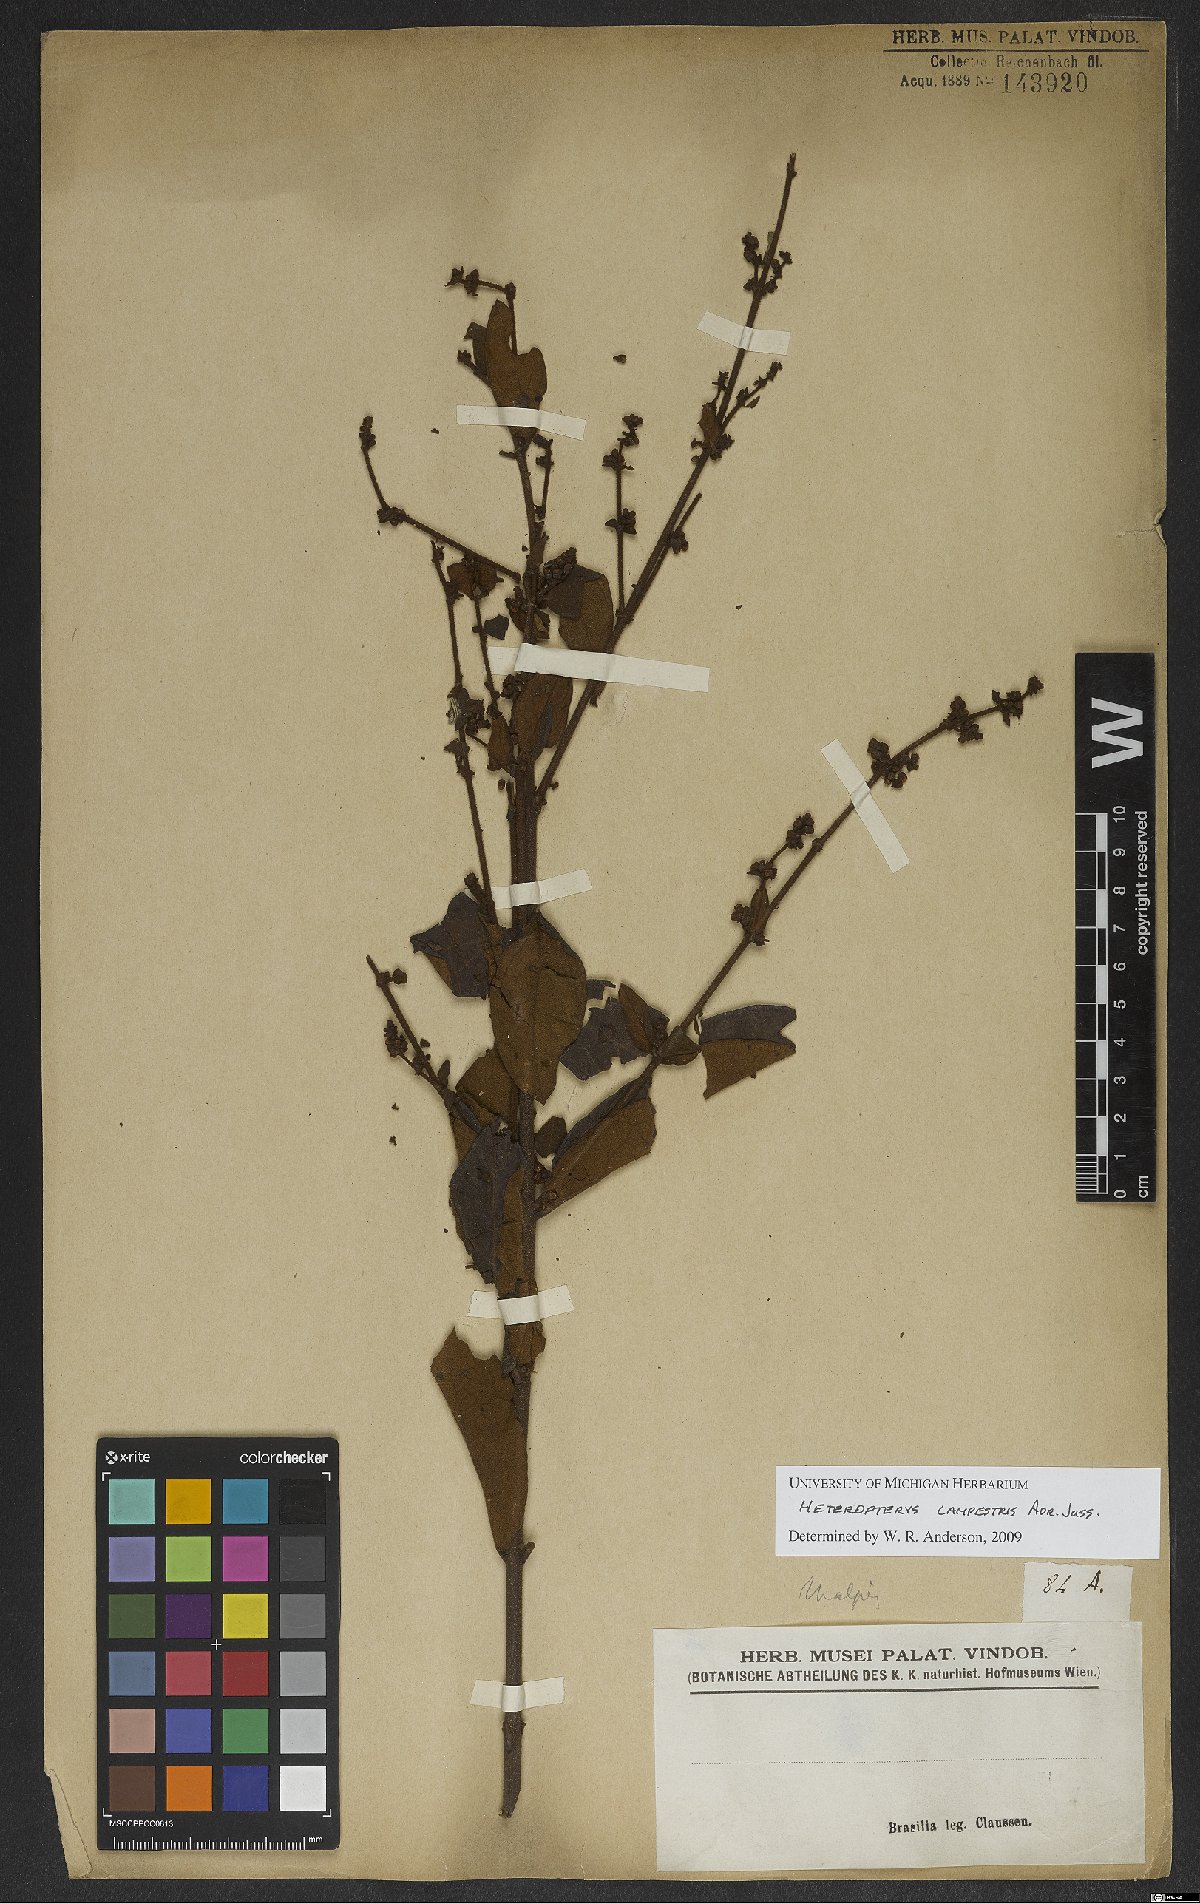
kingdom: Plantae
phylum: Tracheophyta
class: Magnoliopsida
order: Malpighiales
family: Malpighiaceae
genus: Heteropterys
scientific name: Heteropterys campestris
